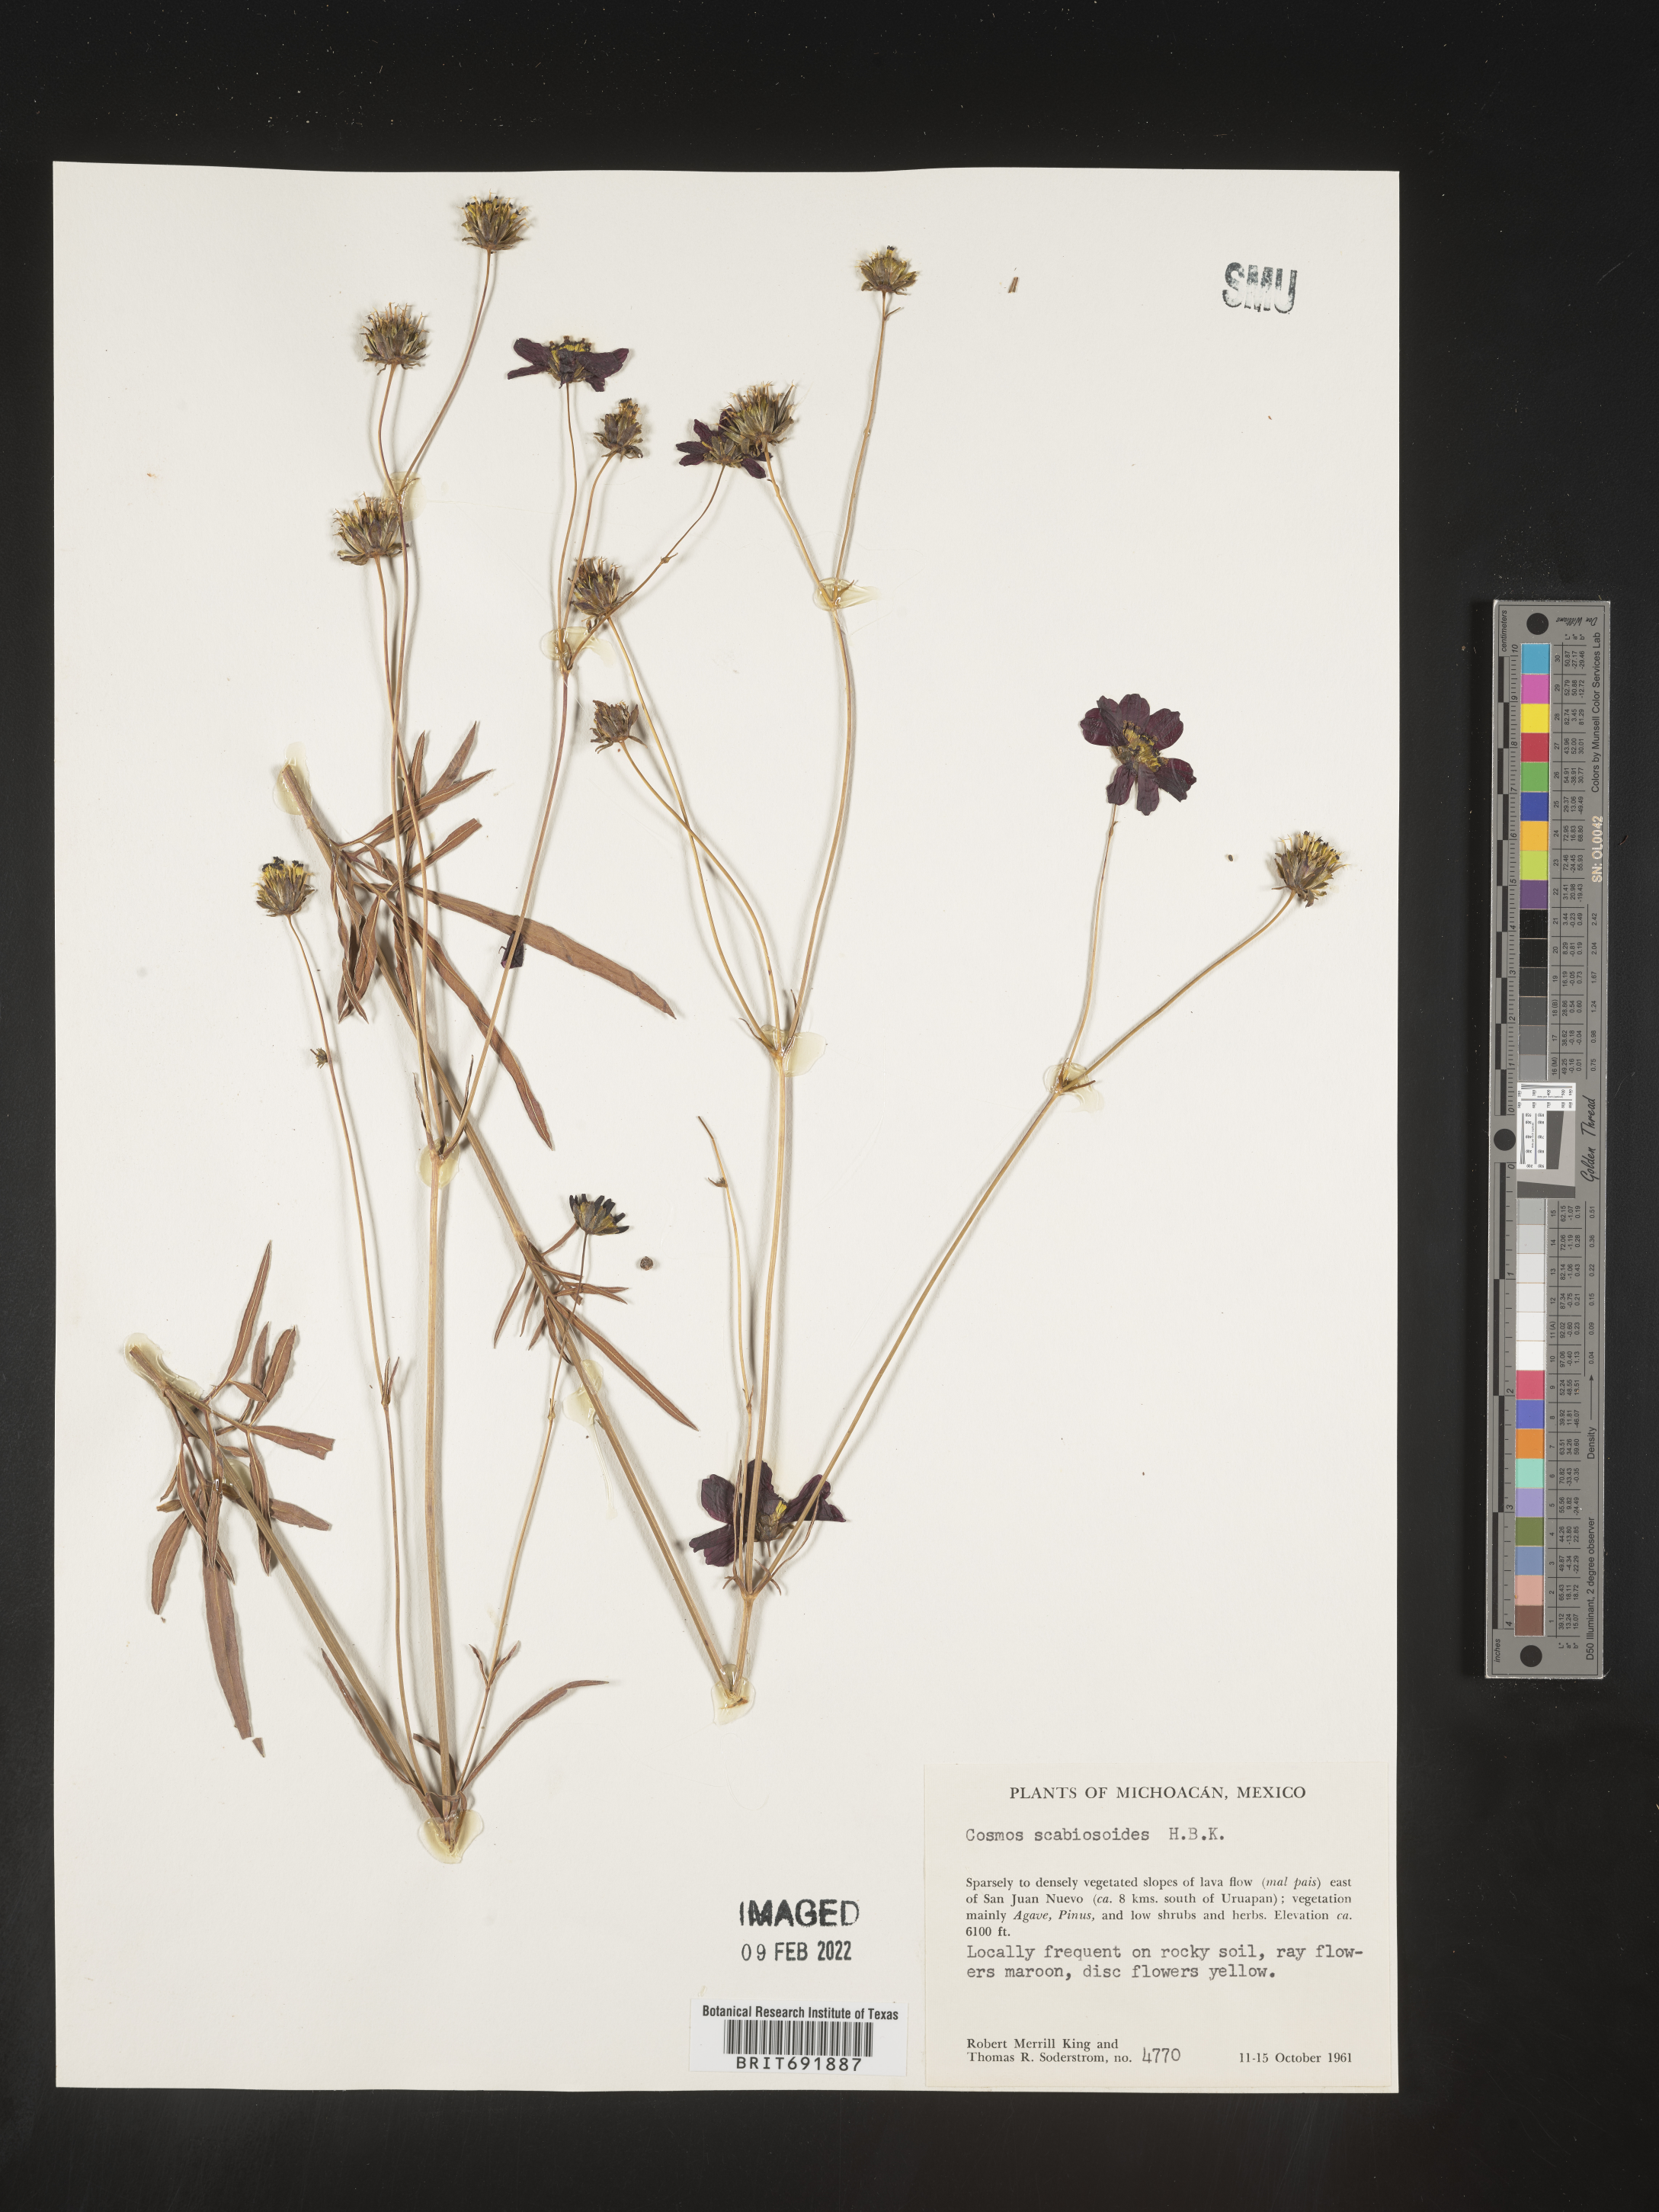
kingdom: Plantae
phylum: Tracheophyta
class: Magnoliopsida
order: Asterales
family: Asteraceae
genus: Cosmos
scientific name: Cosmos
